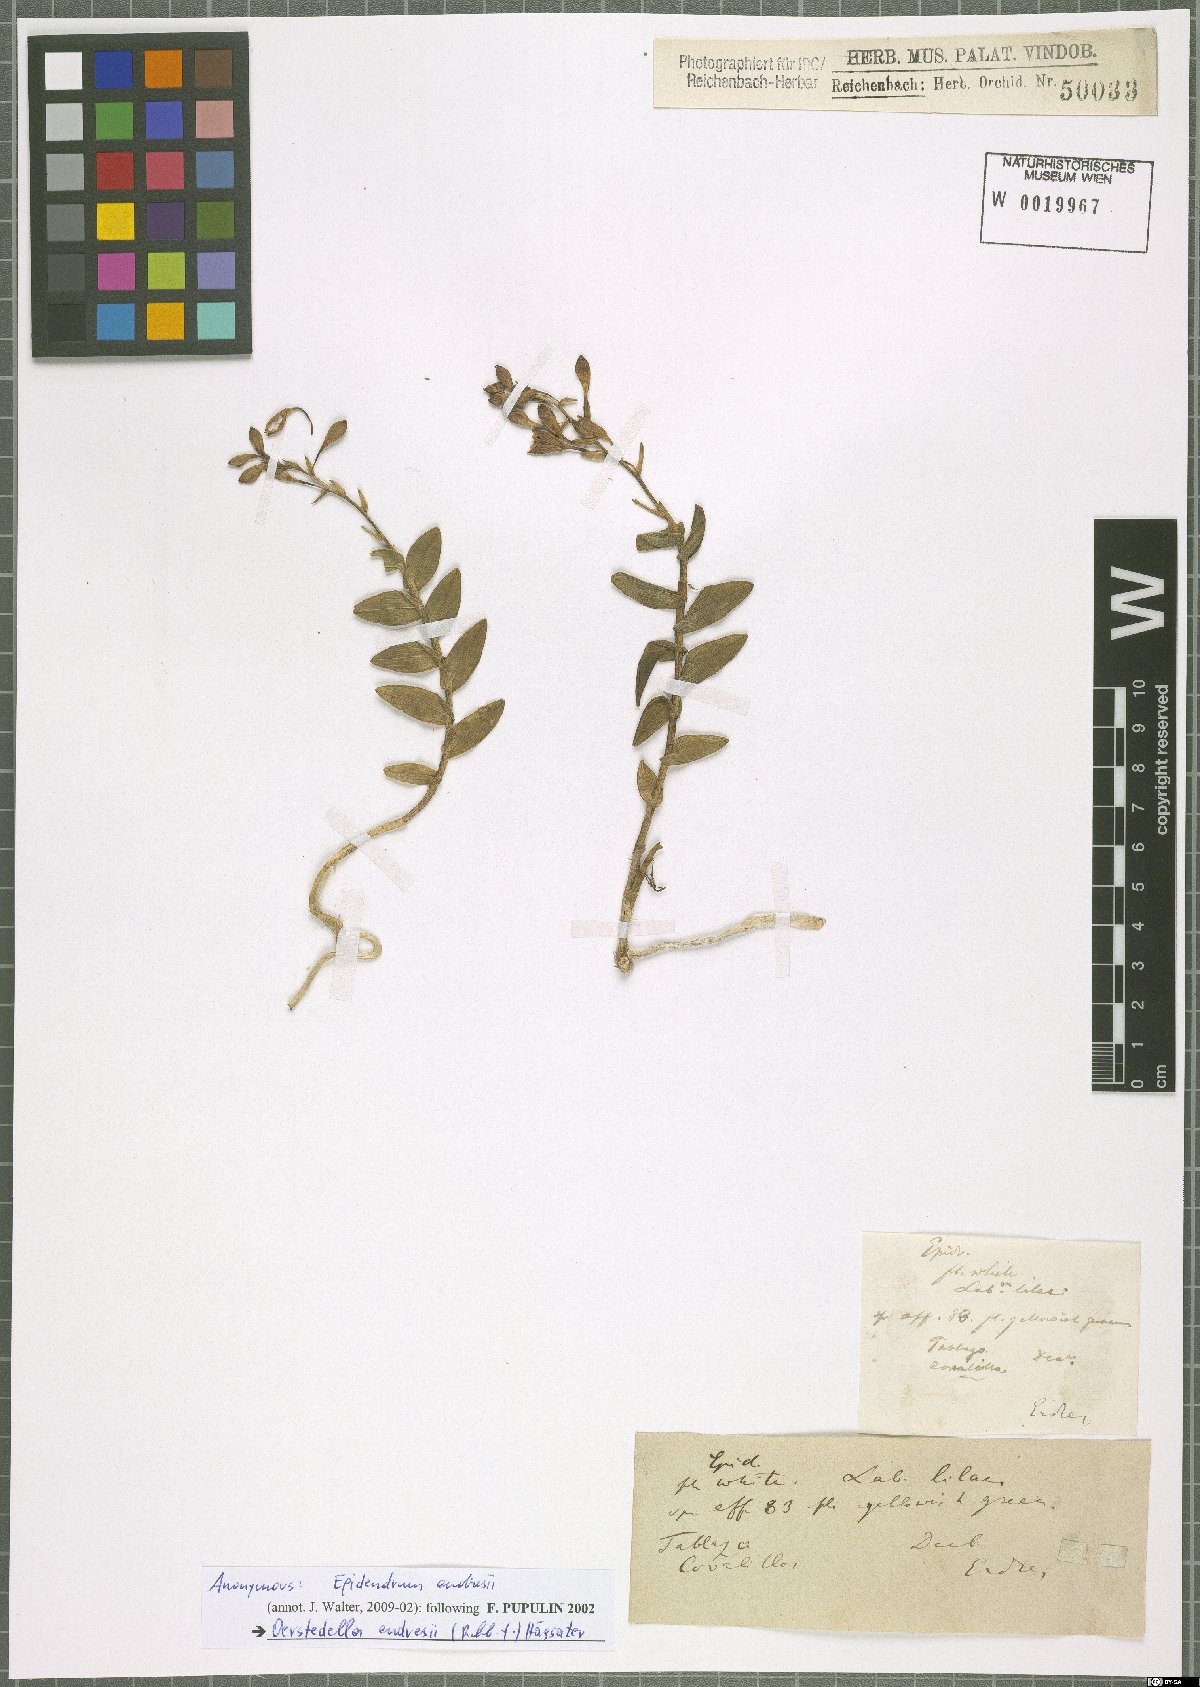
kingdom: Plantae
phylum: Tracheophyta
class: Liliopsida
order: Asparagales
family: Orchidaceae
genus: Epidendrum
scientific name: Epidendrum endresii
